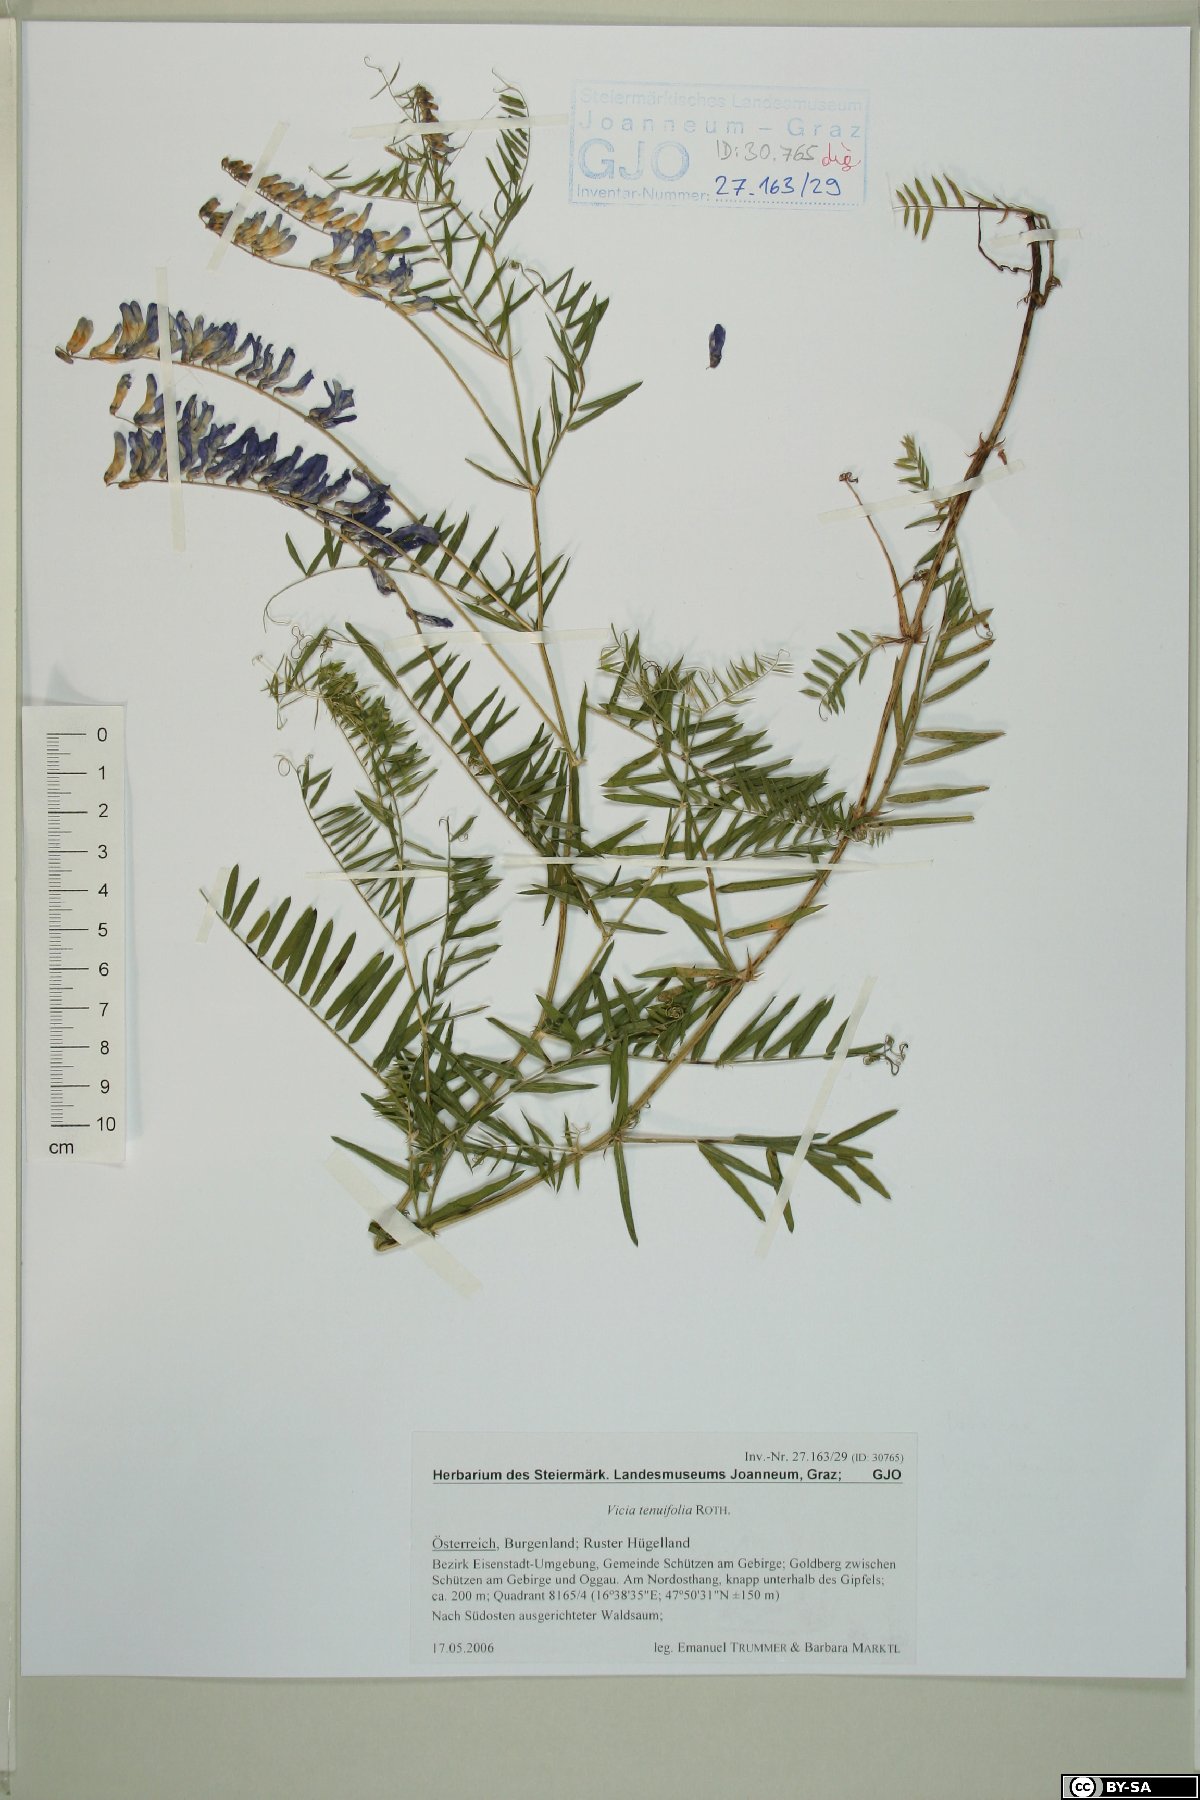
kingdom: Plantae
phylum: Tracheophyta
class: Magnoliopsida
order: Fabales
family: Fabaceae
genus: Vicia
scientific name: Vicia tenuifolia
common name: Fine-leaved vetch
